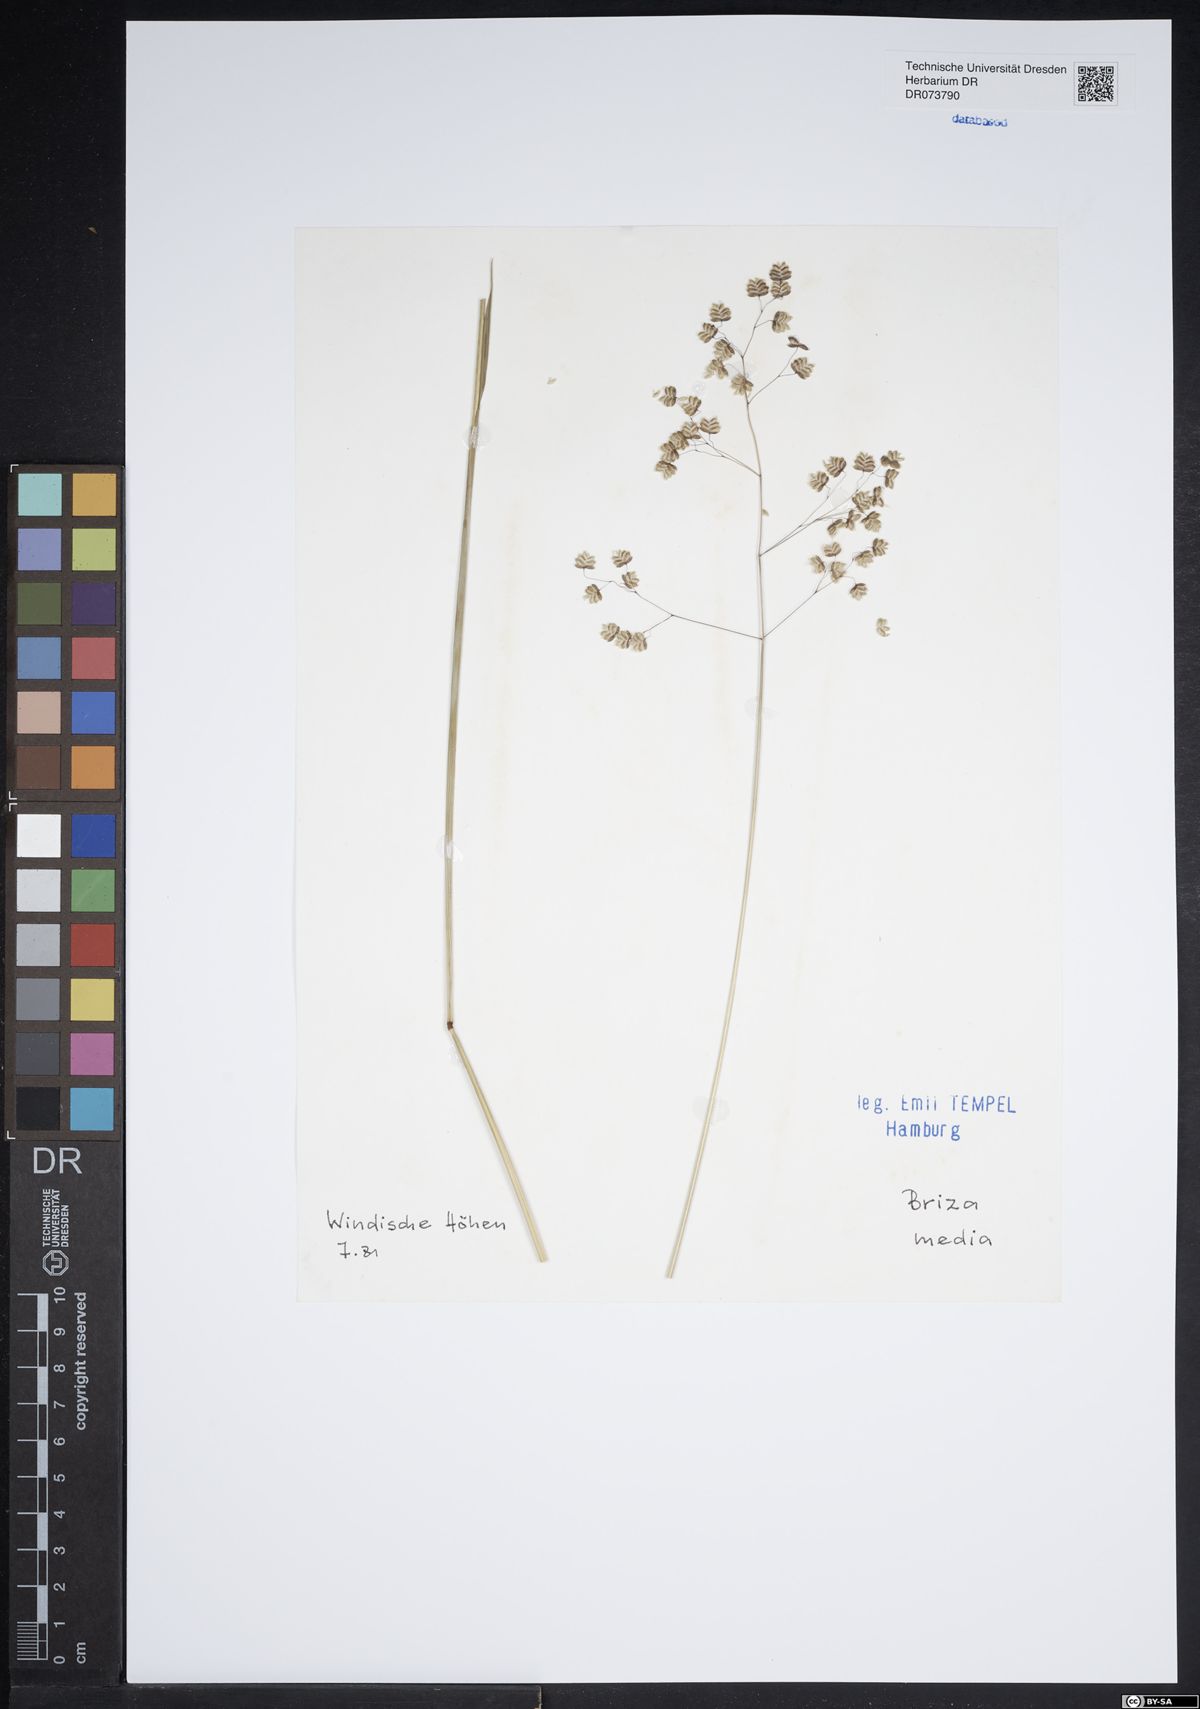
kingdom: Plantae
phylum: Tracheophyta
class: Liliopsida
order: Poales
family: Poaceae
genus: Briza
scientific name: Briza media
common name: Quaking grass
